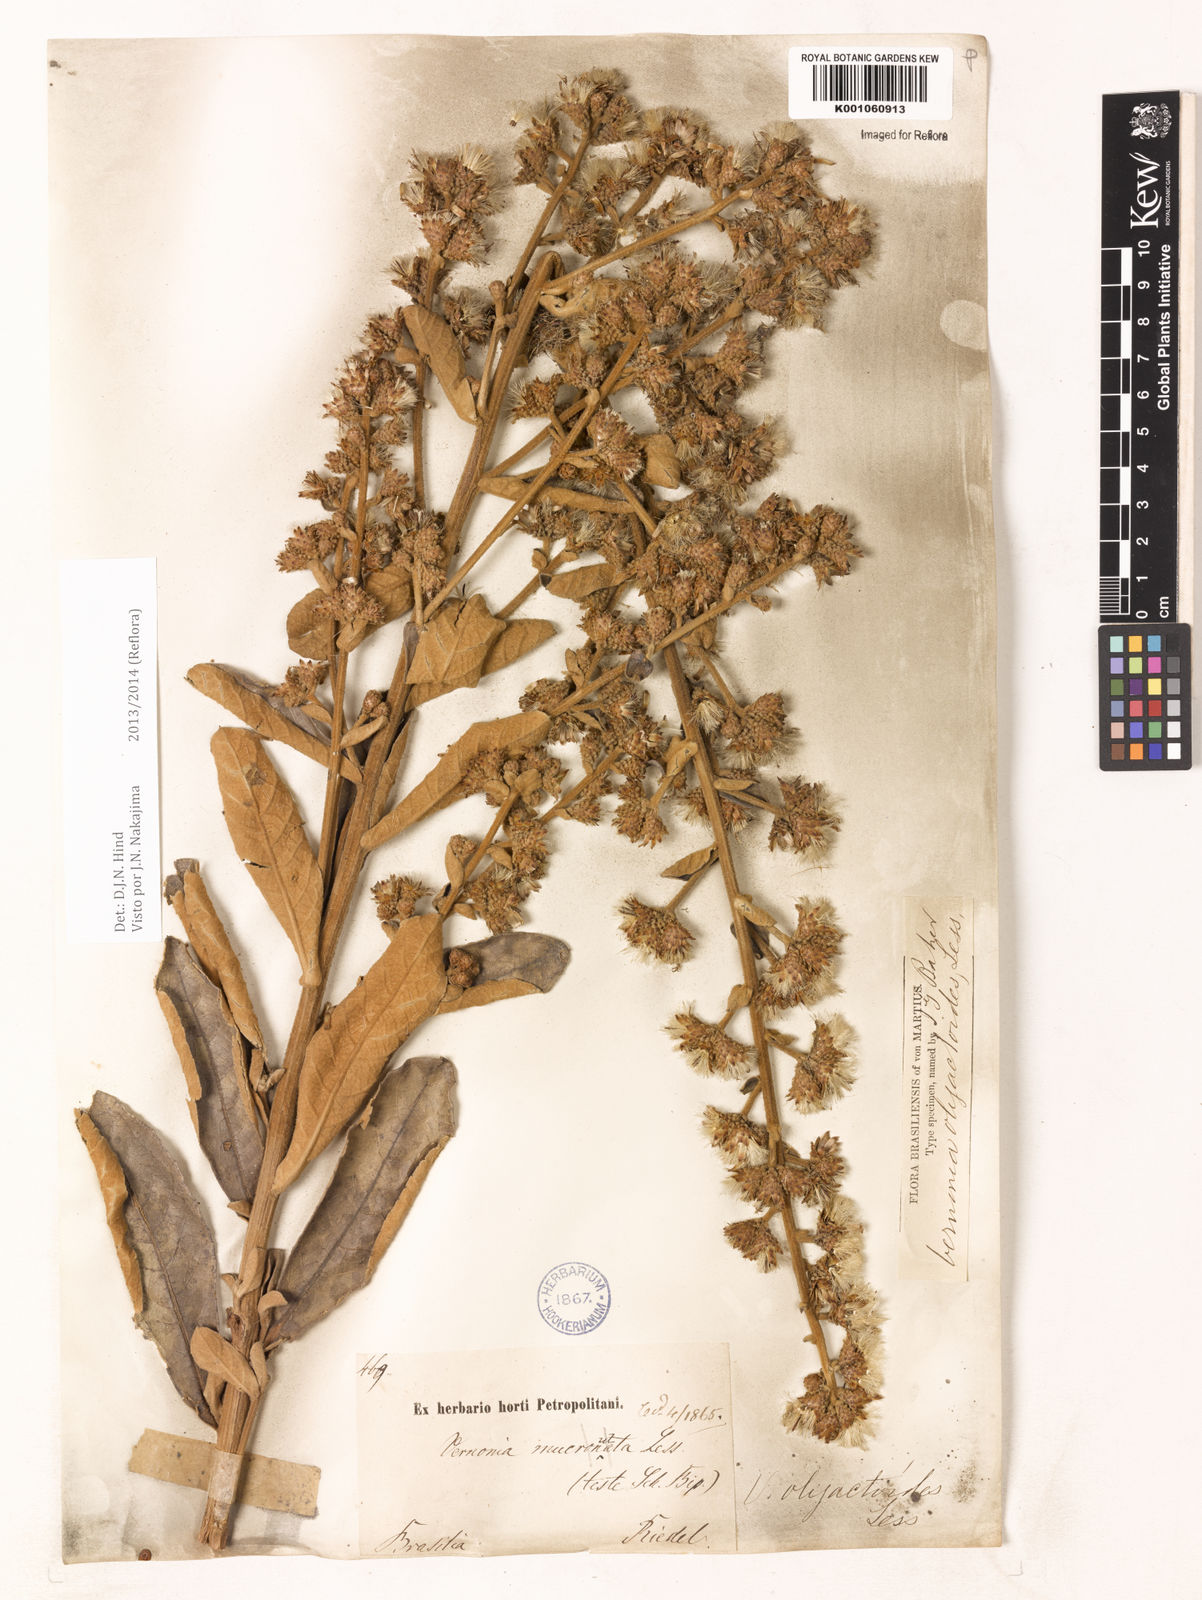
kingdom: Plantae
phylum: Tracheophyta
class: Magnoliopsida
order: Asterales
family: Asteraceae
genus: Vernonanthura
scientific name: Vernonanthura oligactoides
